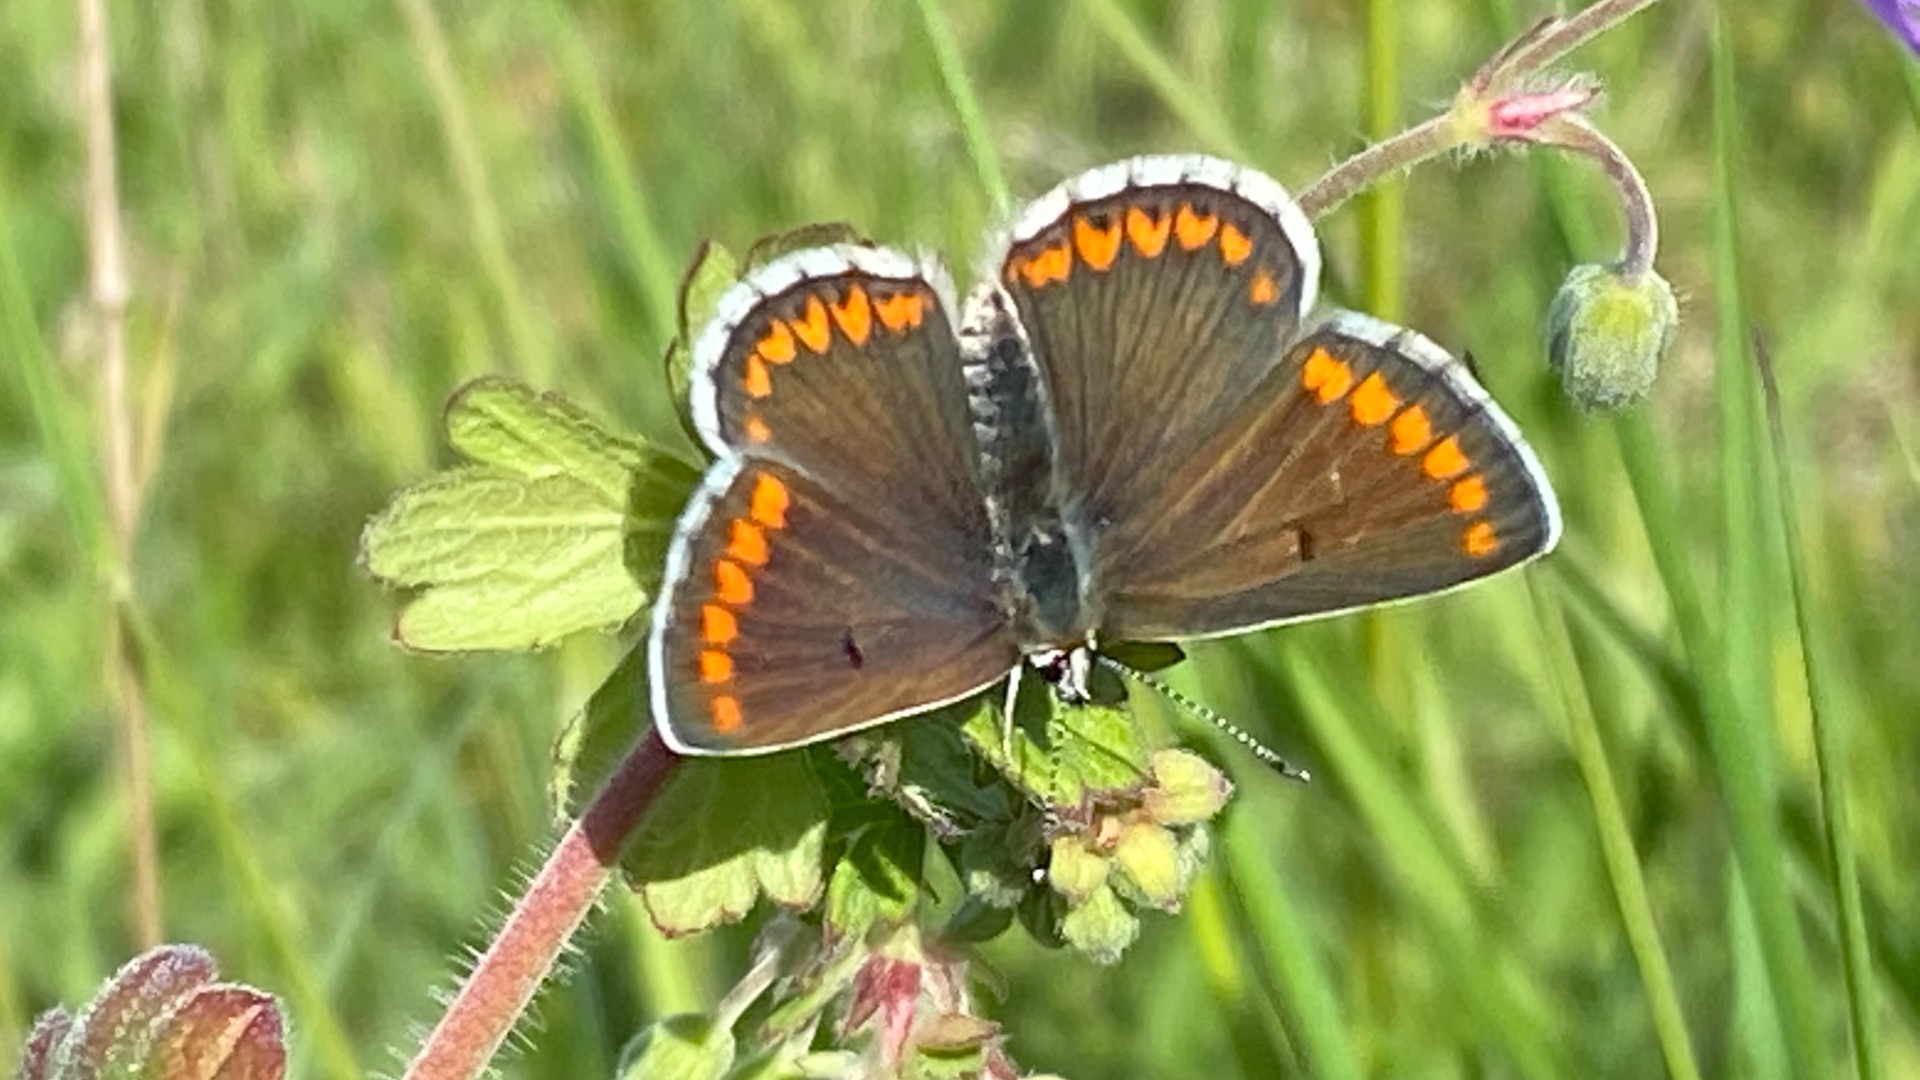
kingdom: Animalia
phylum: Arthropoda
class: Insecta
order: Lepidoptera
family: Lycaenidae
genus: Aricia
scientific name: Aricia agestis
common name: Rødplettet blåfugl
